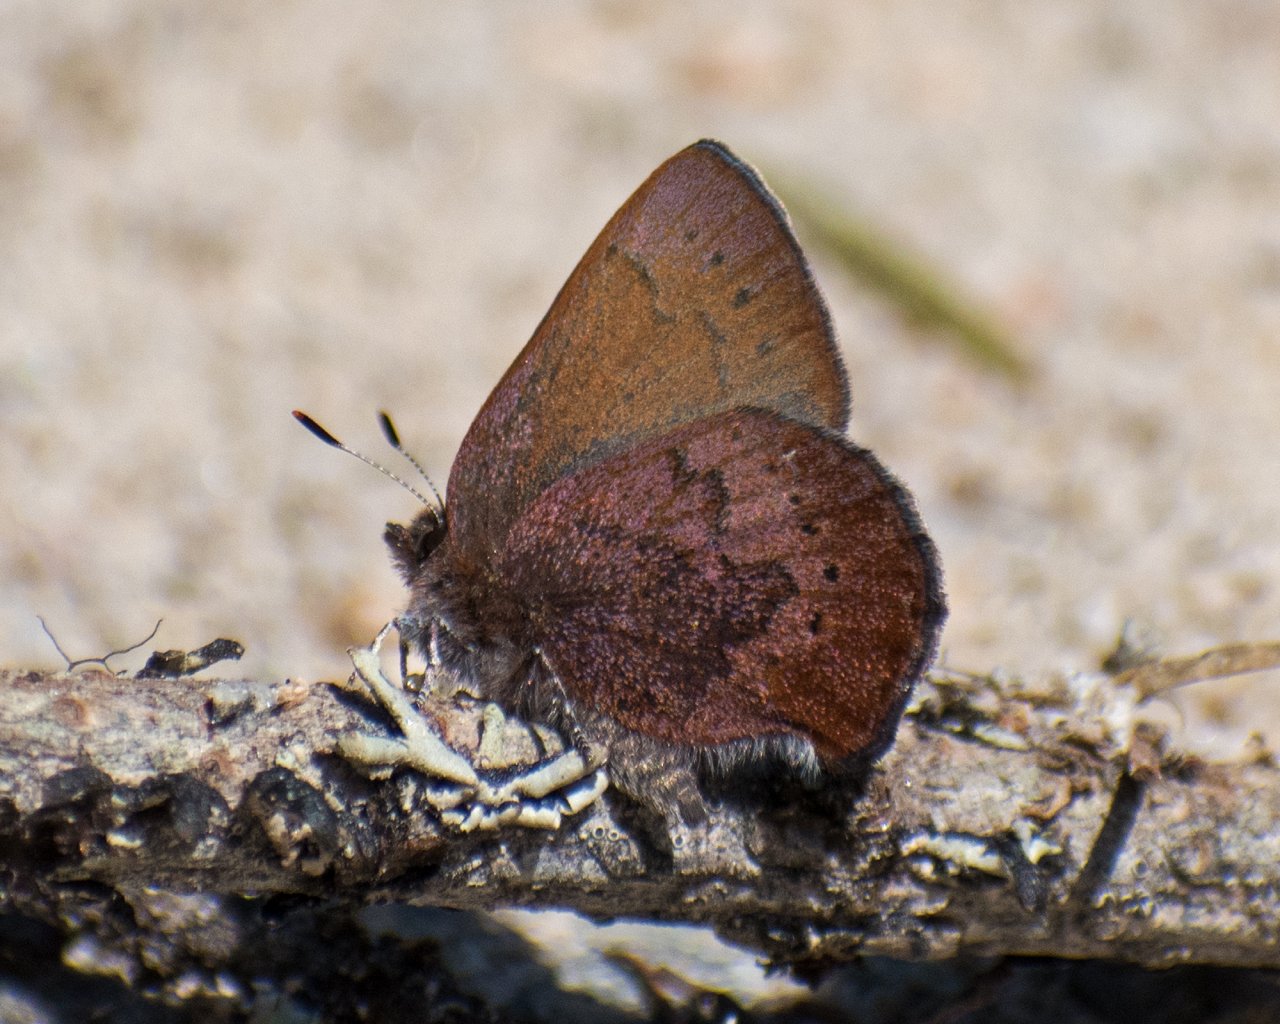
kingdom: Animalia
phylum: Arthropoda
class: Insecta
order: Lepidoptera
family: Lycaenidae
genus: Incisalia
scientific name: Incisalia irioides
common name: Brown Elfin
